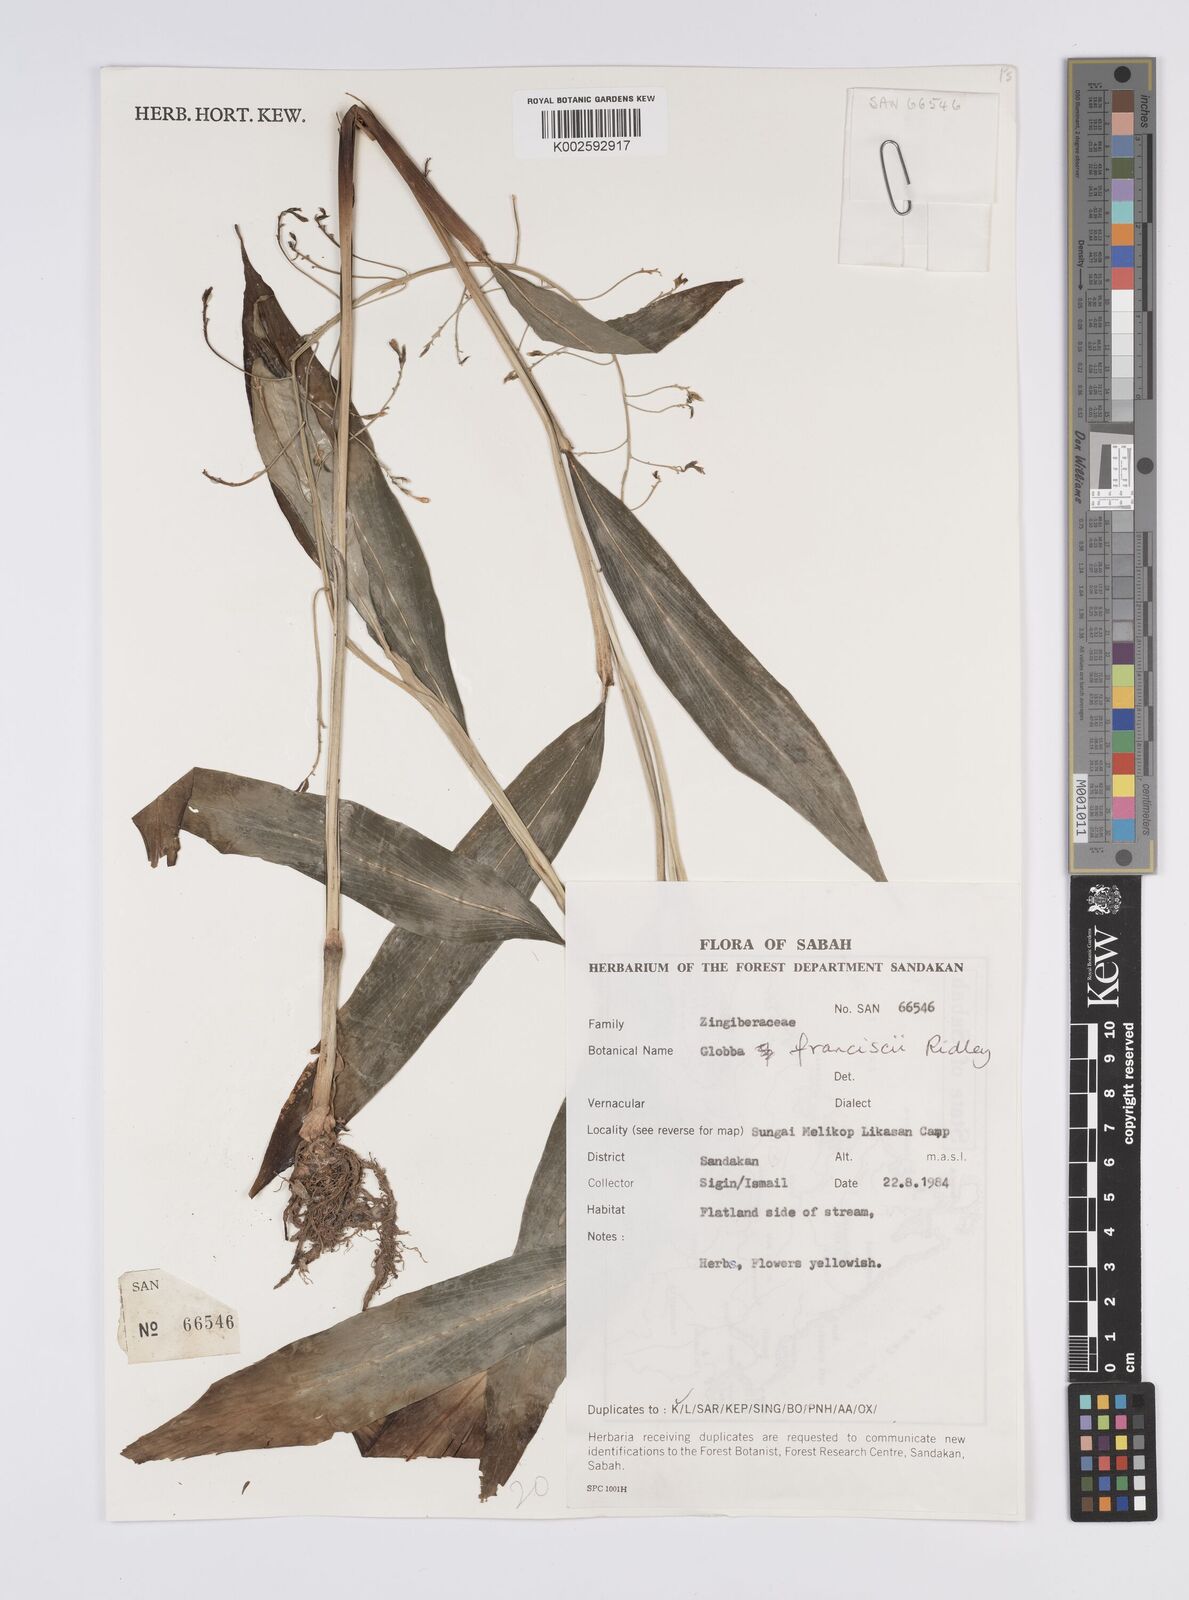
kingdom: Plantae
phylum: Tracheophyta
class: Liliopsida
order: Zingiberales
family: Zingiberaceae
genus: Globba
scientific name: Globba francisci
